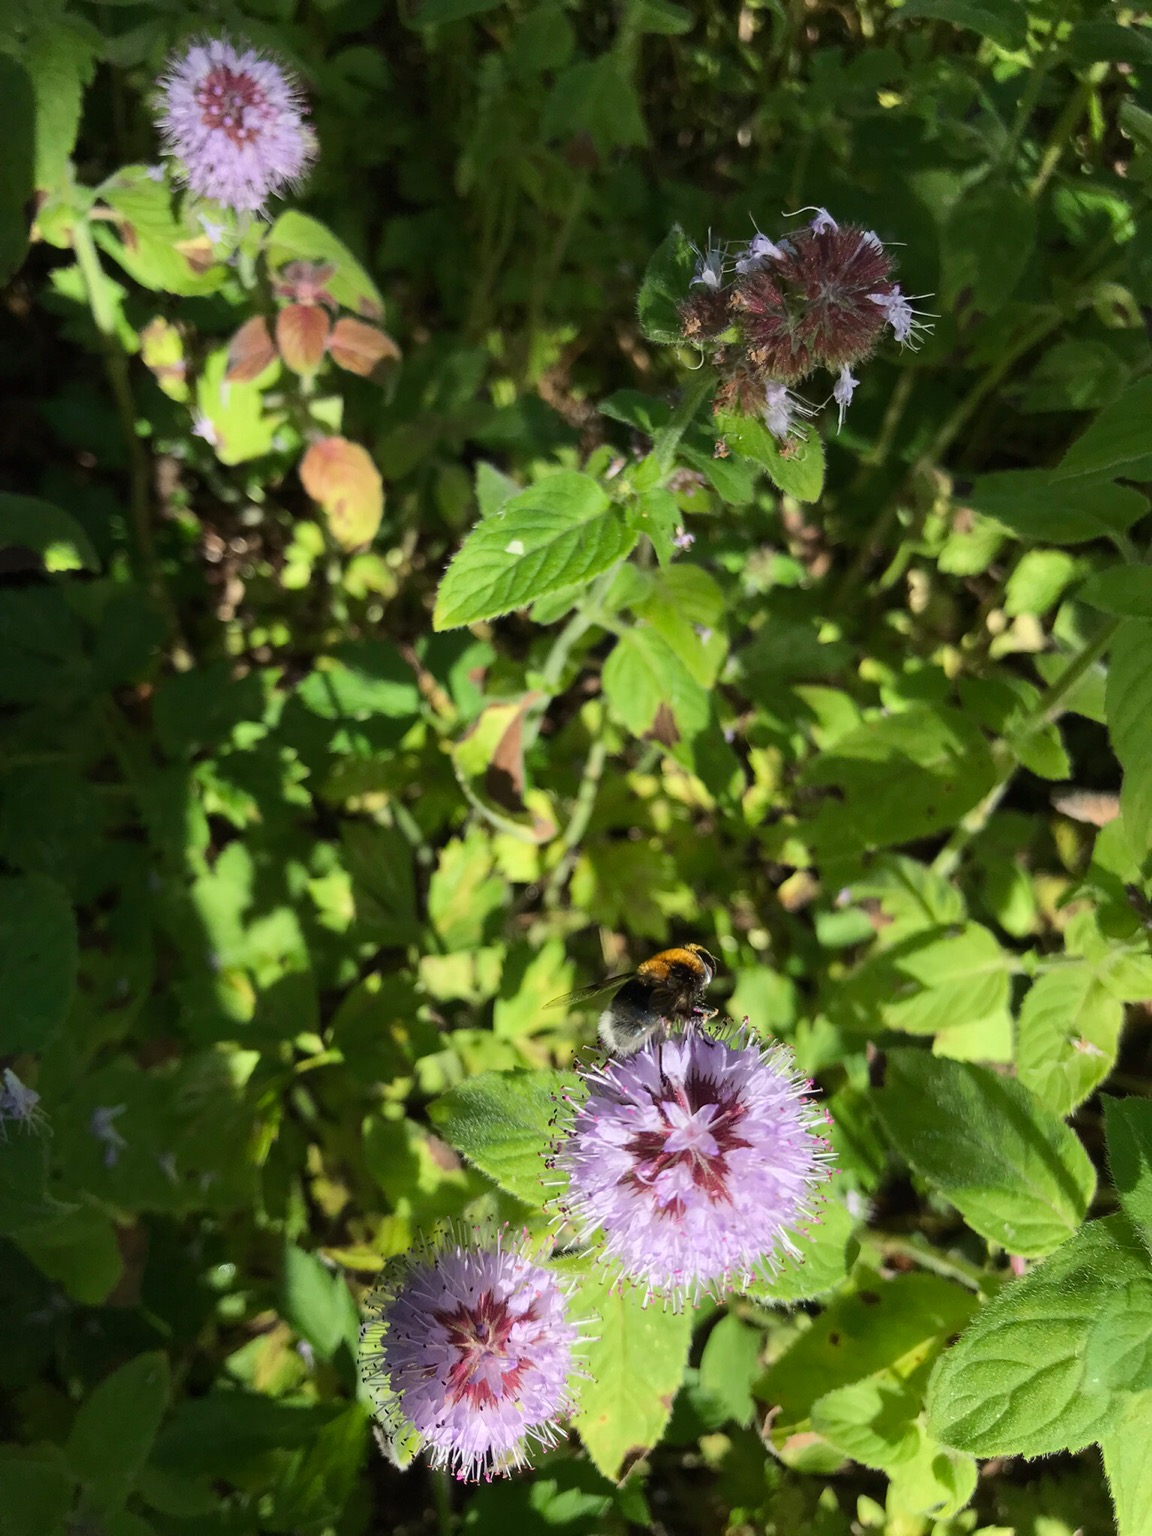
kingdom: Animalia
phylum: Arthropoda
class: Insecta
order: Diptera
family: Syrphidae
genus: Eristalis
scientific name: Eristalis intricaria
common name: Håret dyndflue
